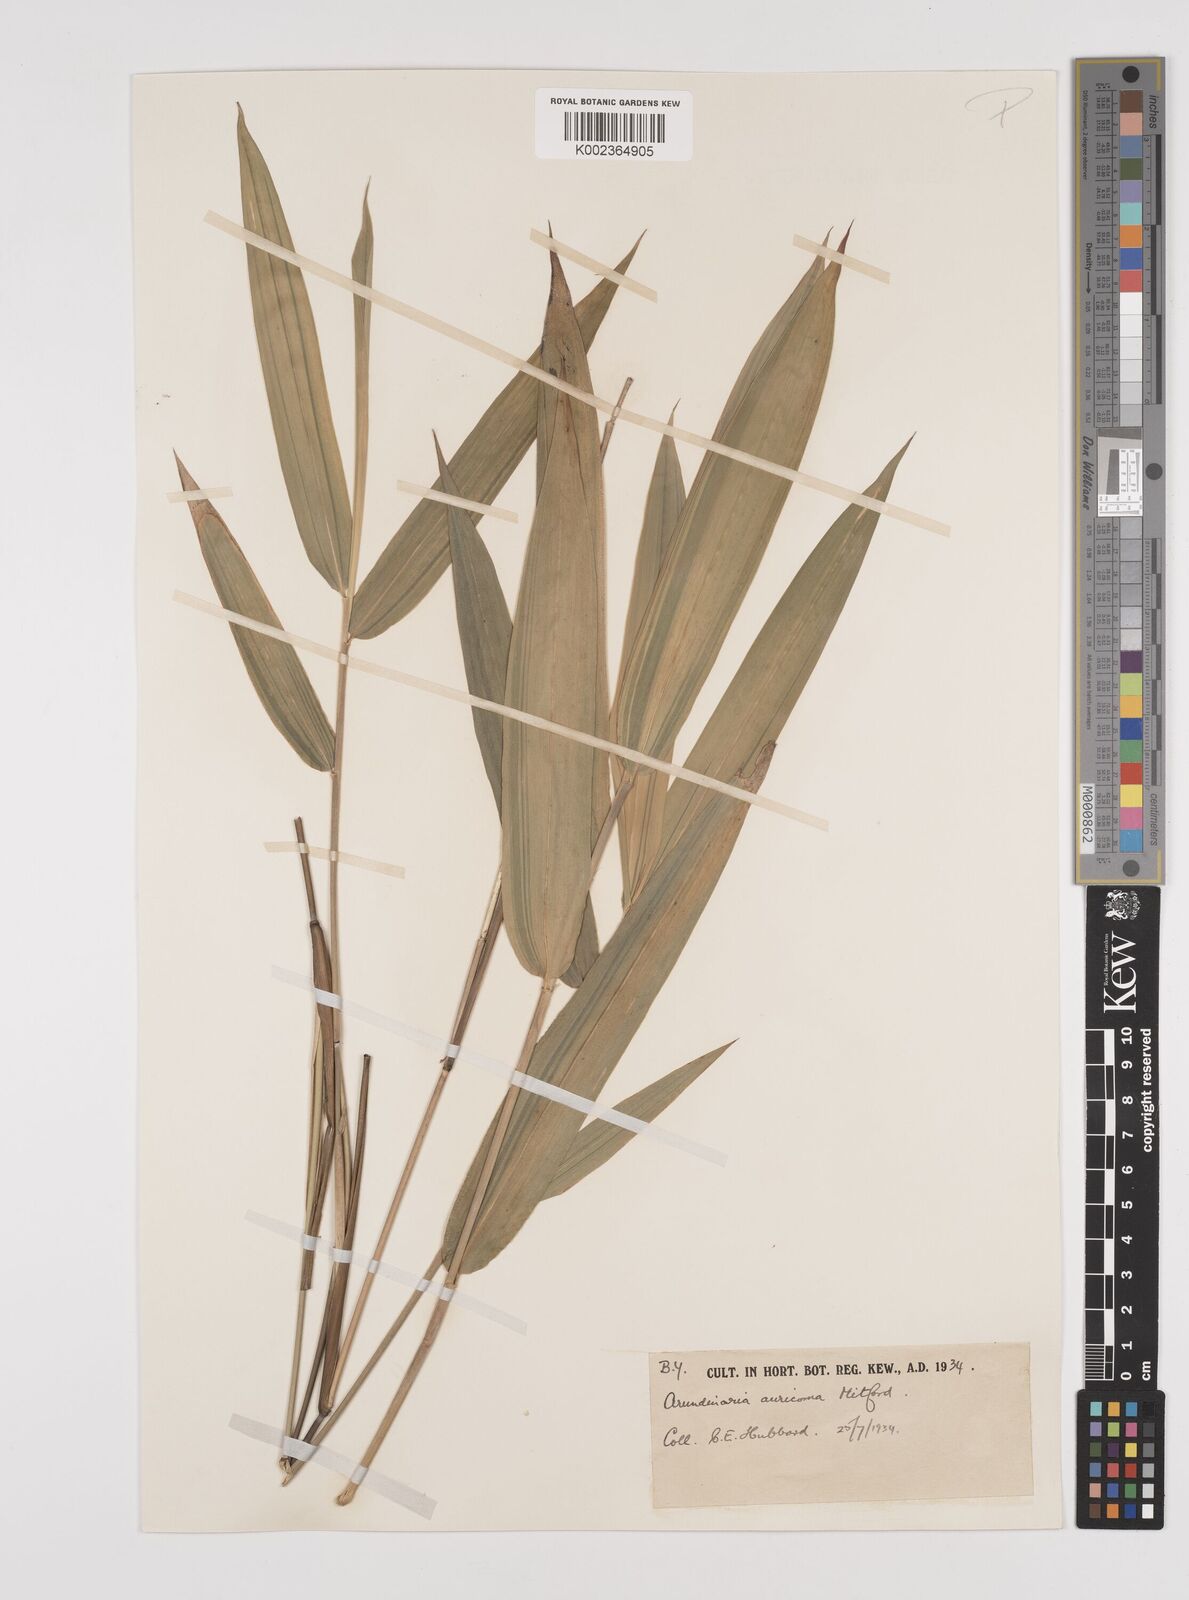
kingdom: Plantae
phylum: Tracheophyta
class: Liliopsida
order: Poales
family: Poaceae
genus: Pleioblastus
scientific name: Pleioblastus viridistriatus
